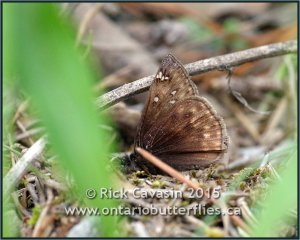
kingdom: Animalia
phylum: Arthropoda
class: Insecta
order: Lepidoptera
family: Hesperiidae
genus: Gesta
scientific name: Gesta
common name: Juvenal's Duskywing
